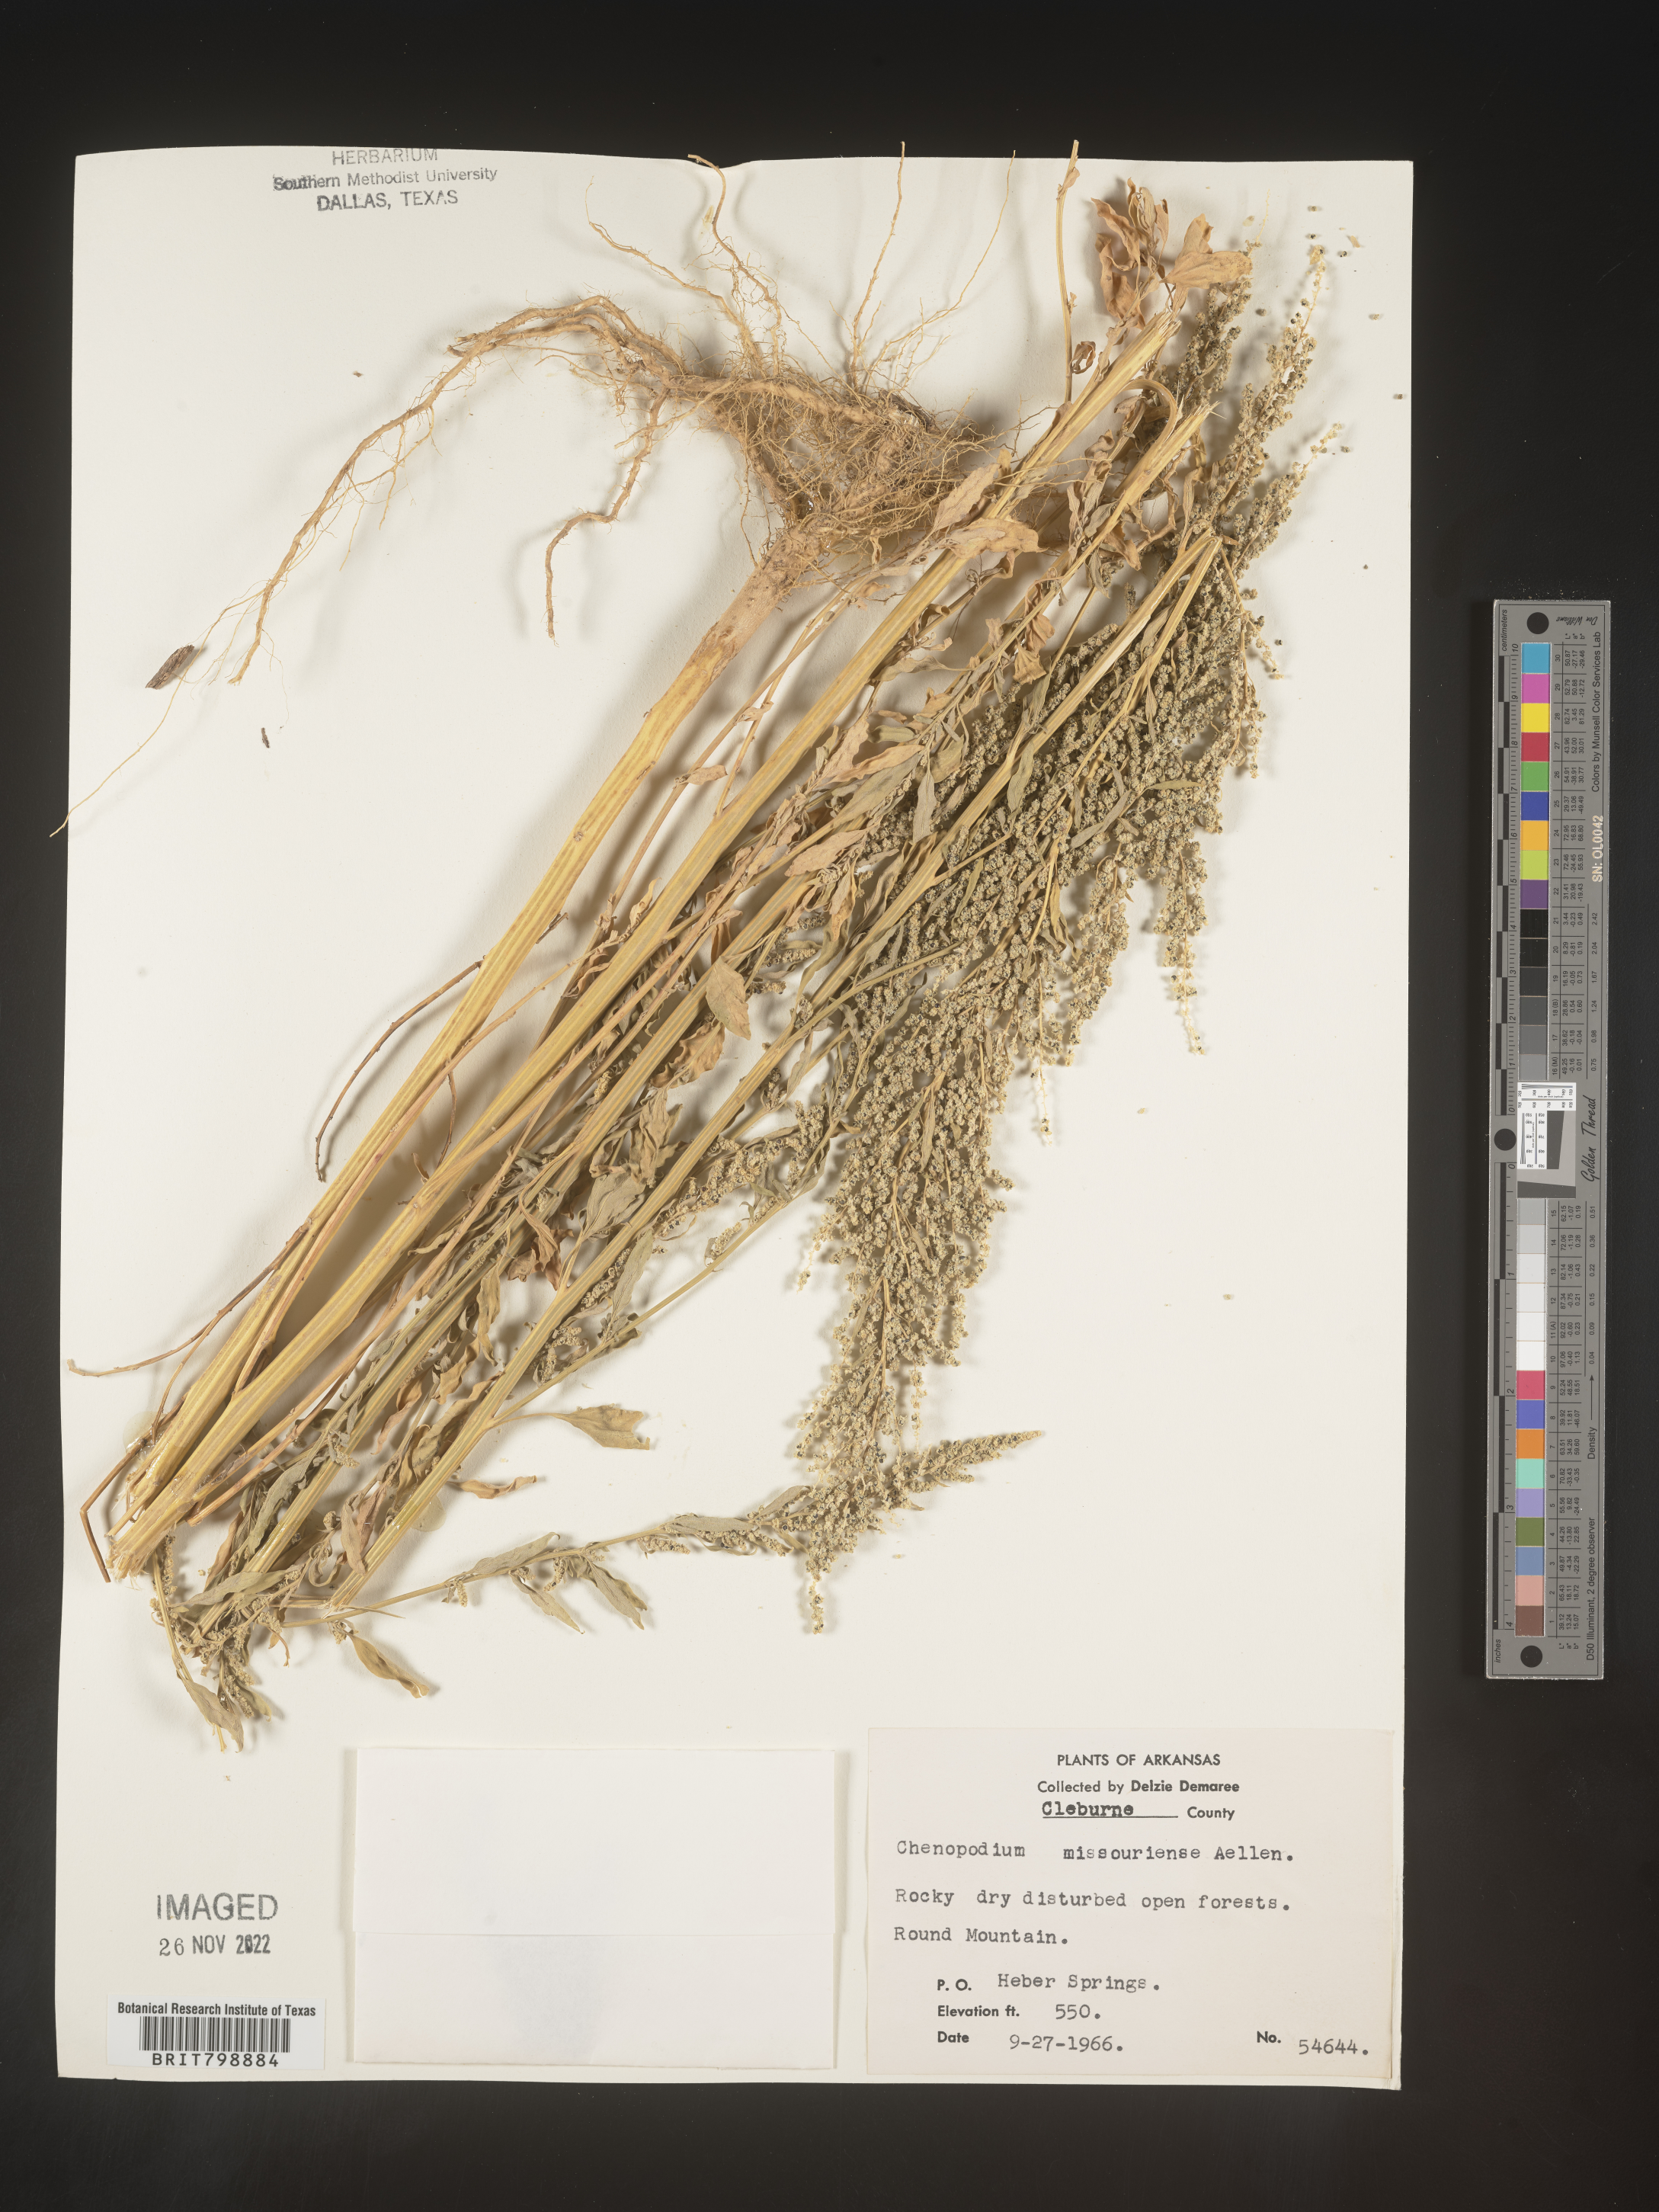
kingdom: Plantae
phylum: Tracheophyta
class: Magnoliopsida
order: Caryophyllales
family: Amaranthaceae
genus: Chenopodium
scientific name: Chenopodium album
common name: Fat-hen
